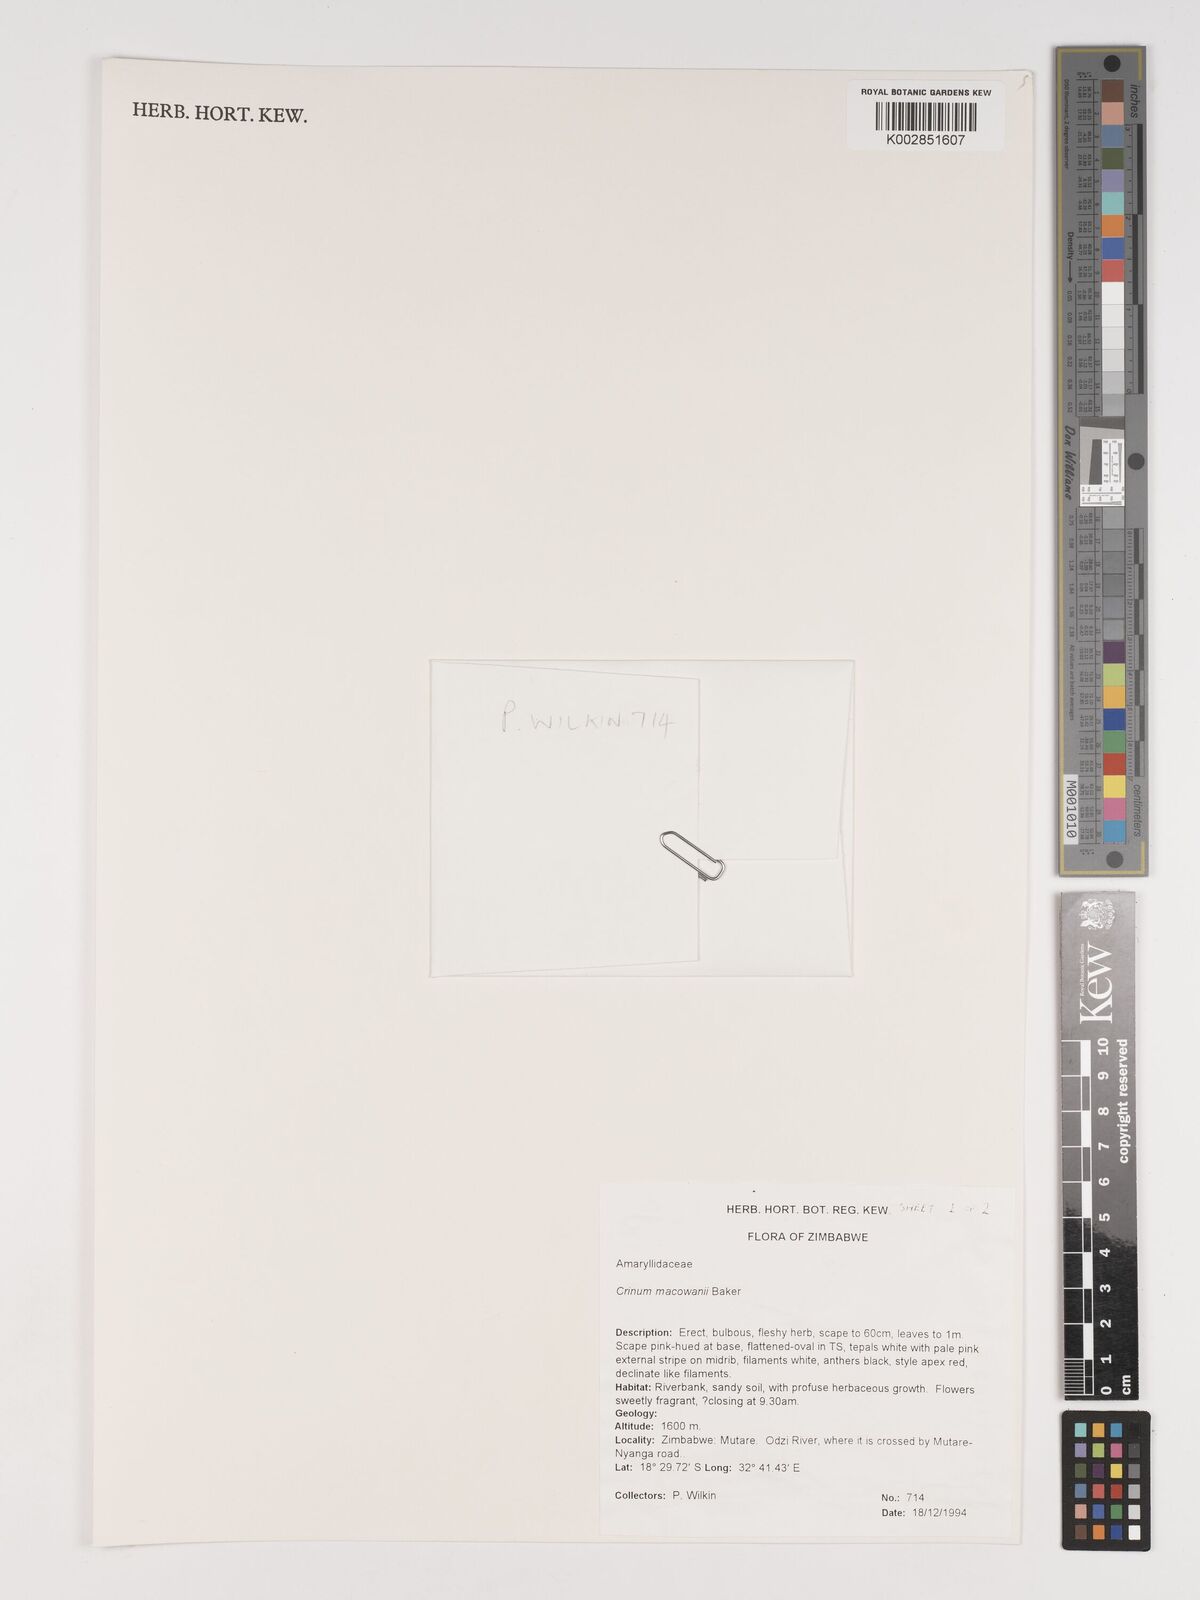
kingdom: Plantae
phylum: Tracheophyta
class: Liliopsida
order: Asparagales
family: Amaryllidaceae
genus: Crinum
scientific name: Crinum macowanii
